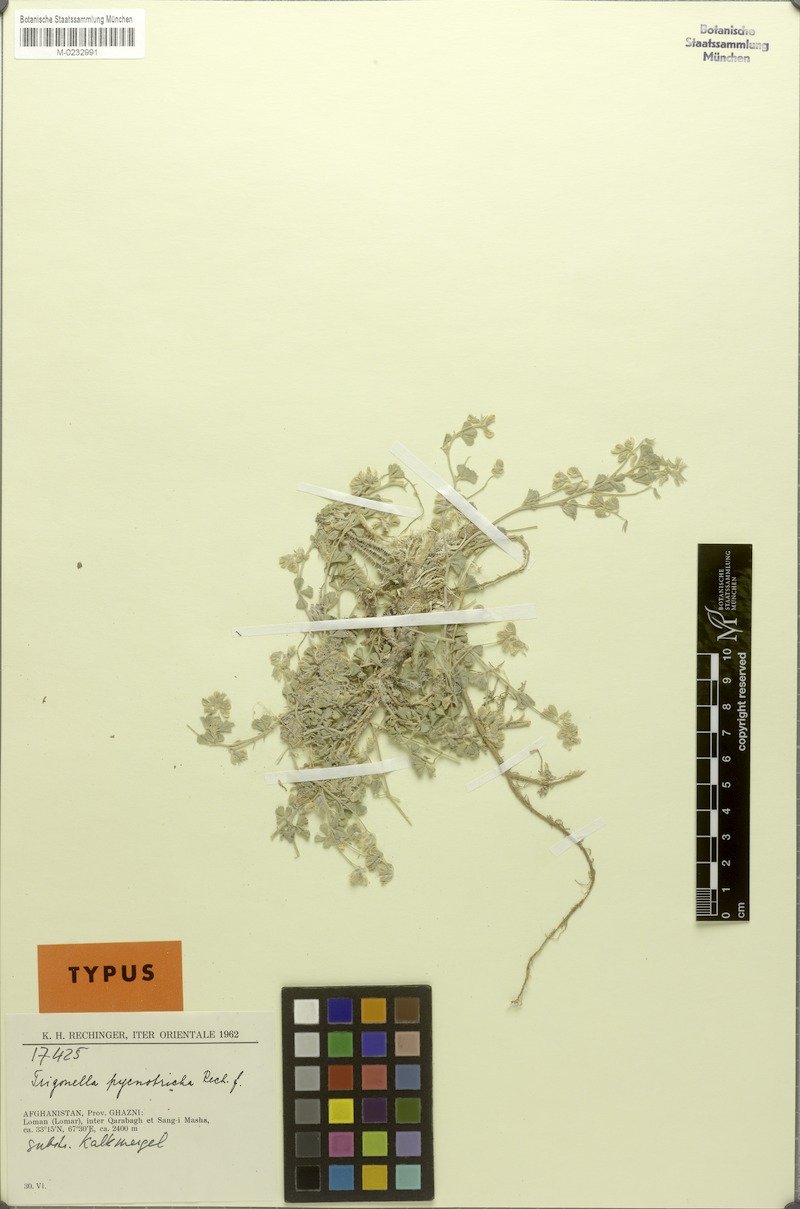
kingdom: Plantae
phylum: Tracheophyta
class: Magnoliopsida
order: Fabales
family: Fabaceae
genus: Trigonella
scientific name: Trigonella pycnotricha
